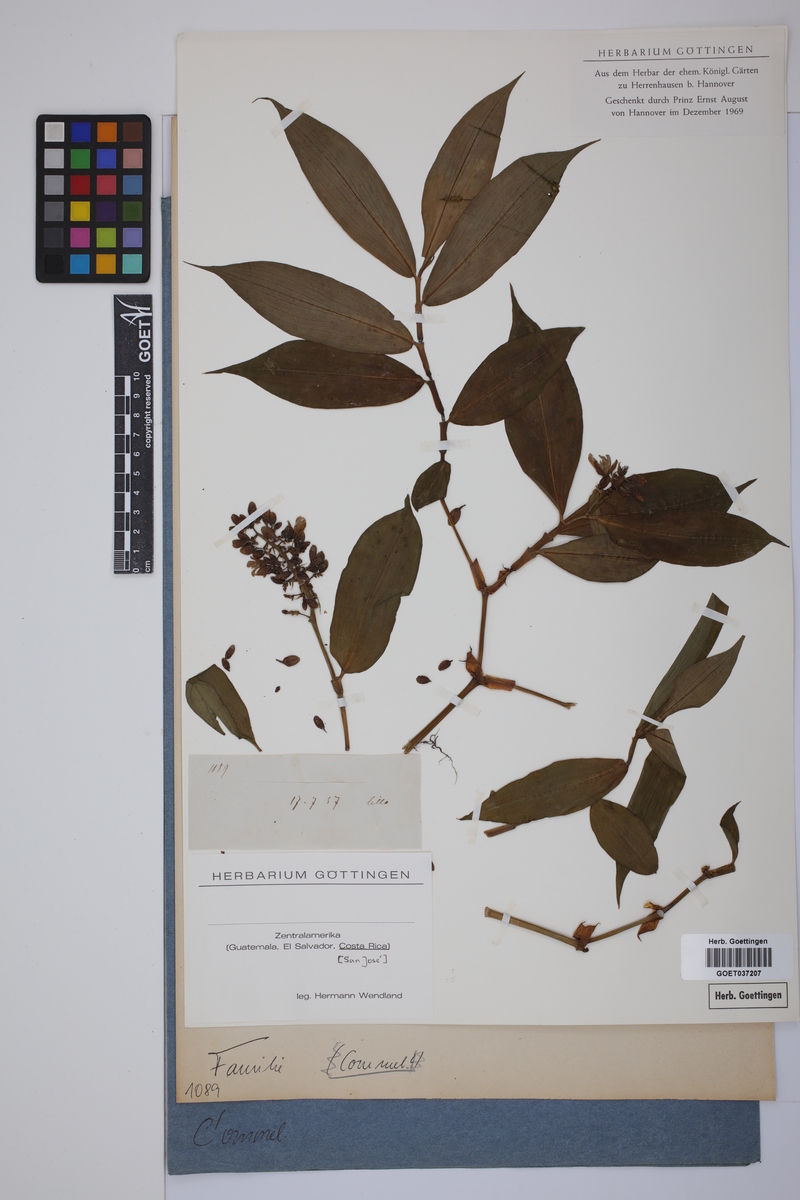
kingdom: Plantae
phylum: Tracheophyta
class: Liliopsida
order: Commelinales
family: Commelinaceae
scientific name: Commelinaceae
